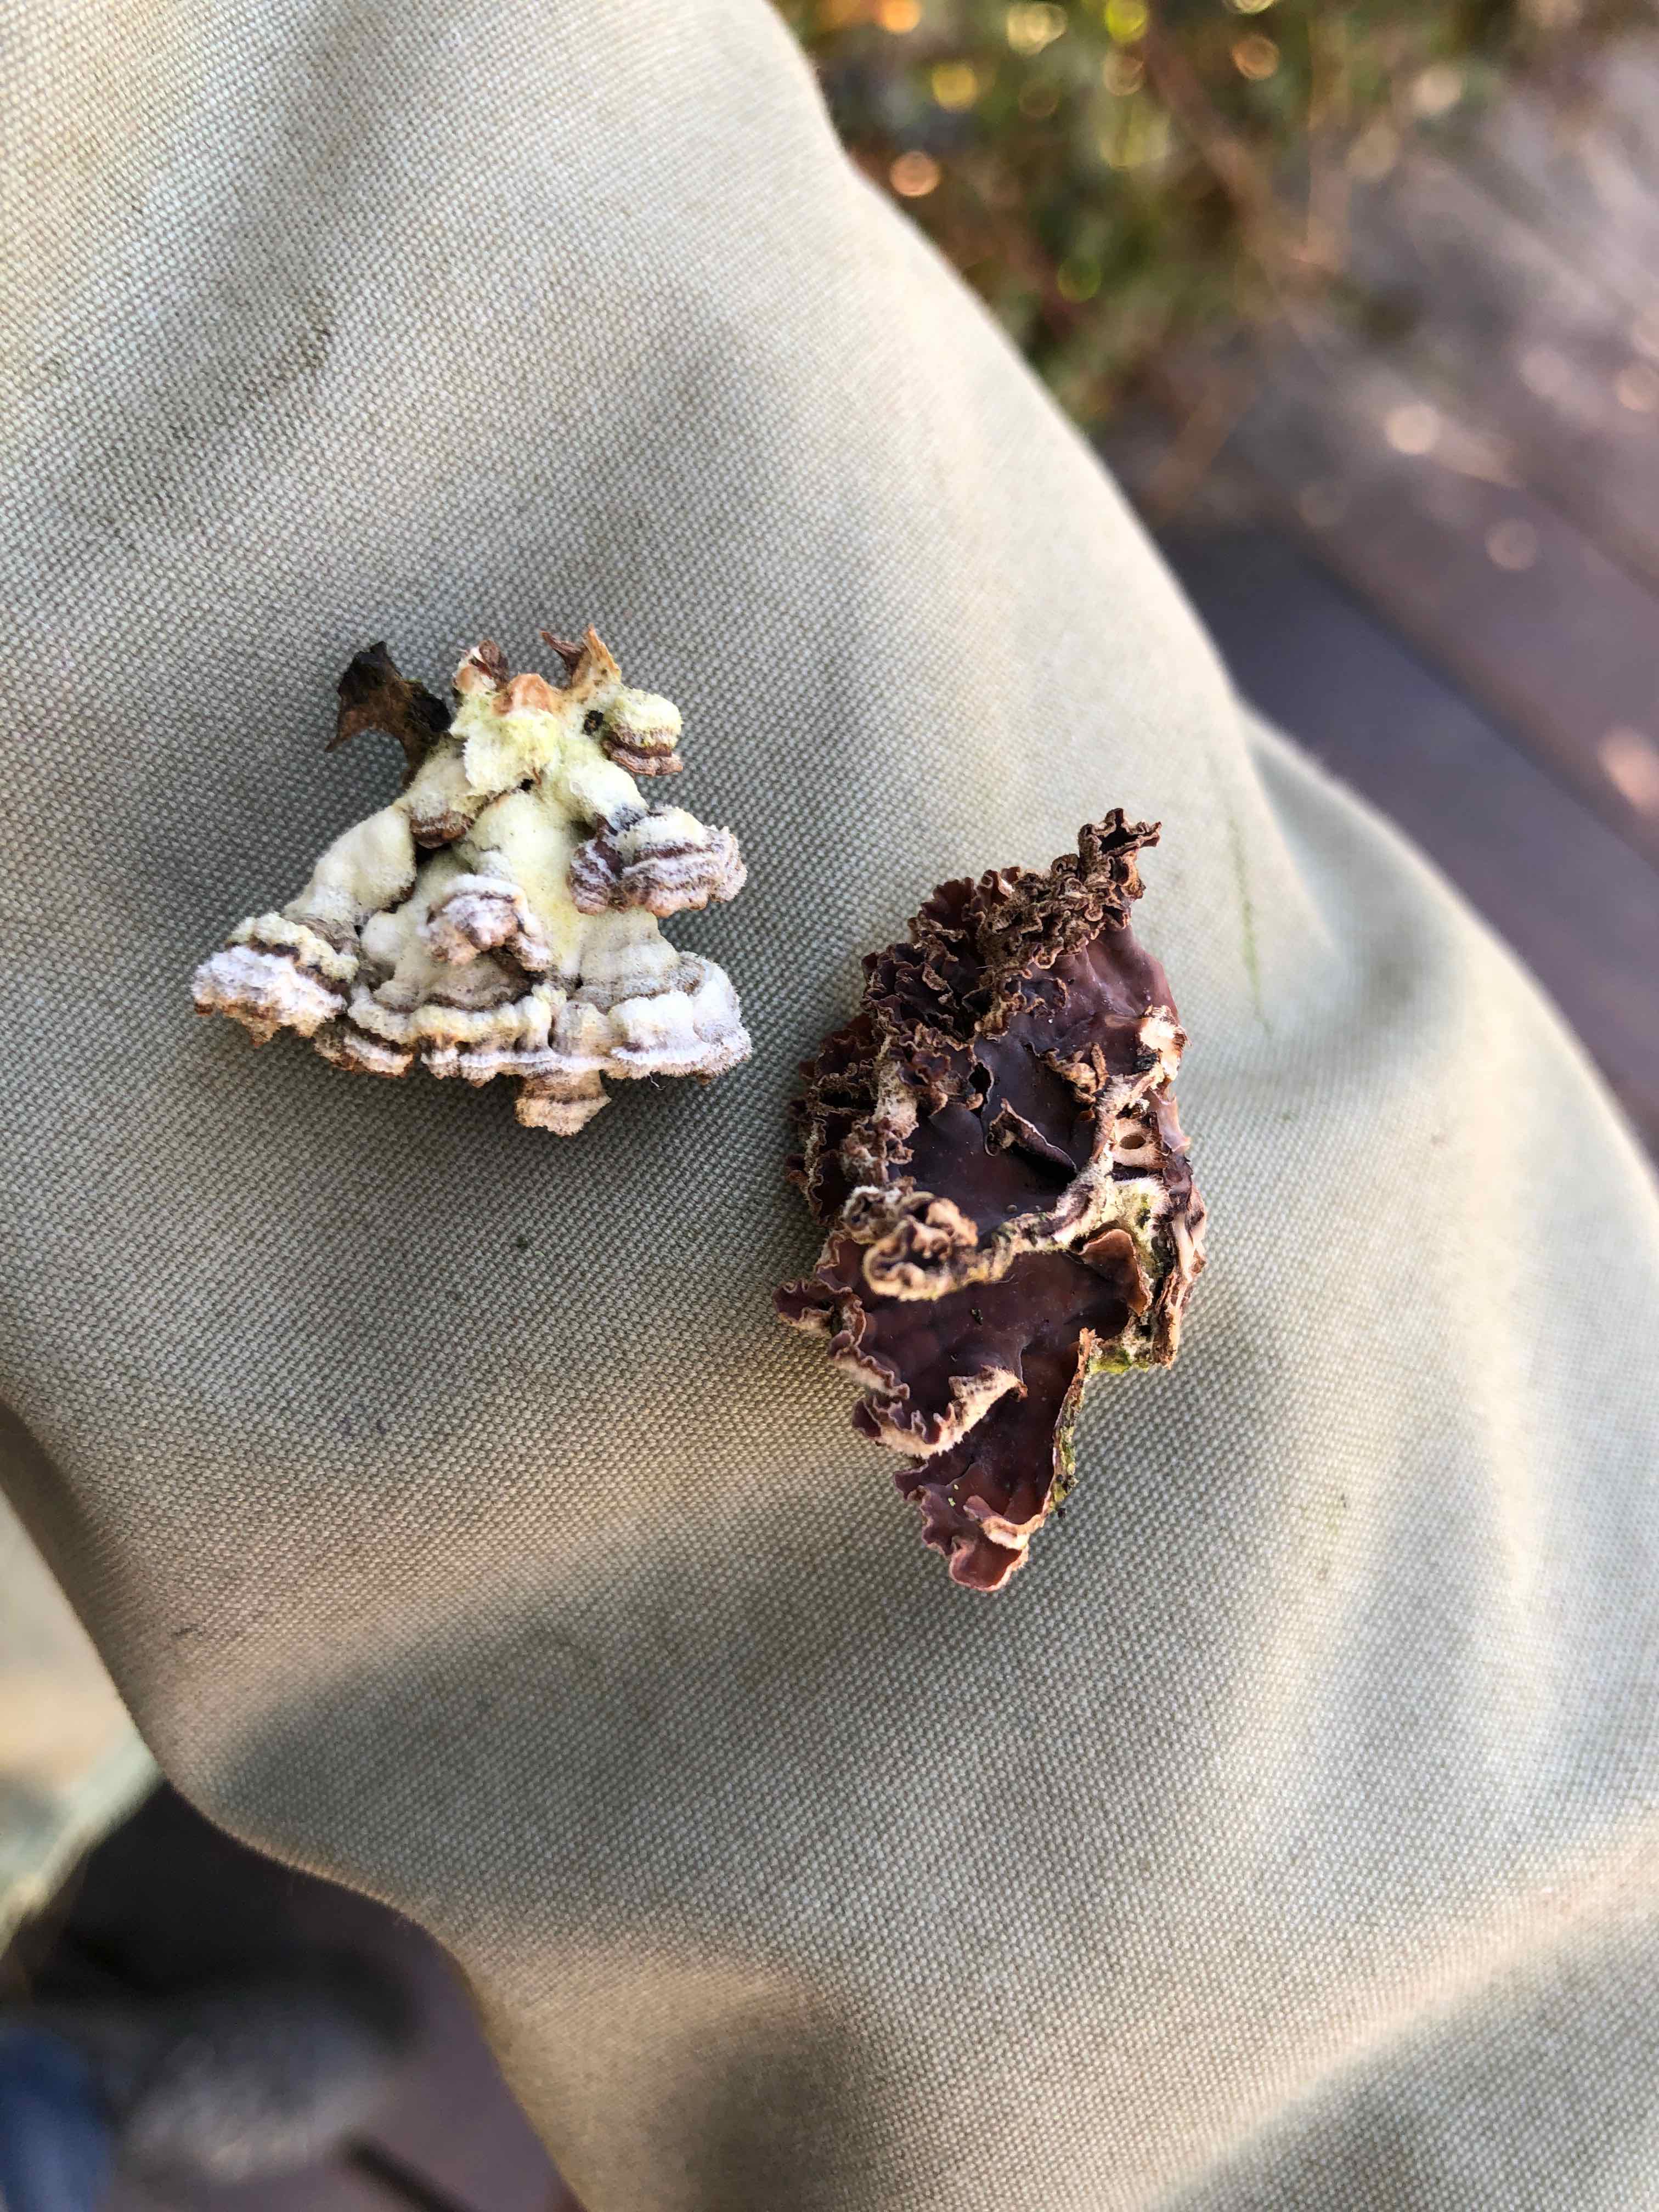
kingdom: Fungi
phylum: Basidiomycota
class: Agaricomycetes
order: Agaricales
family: Cyphellaceae
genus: Chondrostereum
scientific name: Chondrostereum purpureum
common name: purpurlædersvamp
